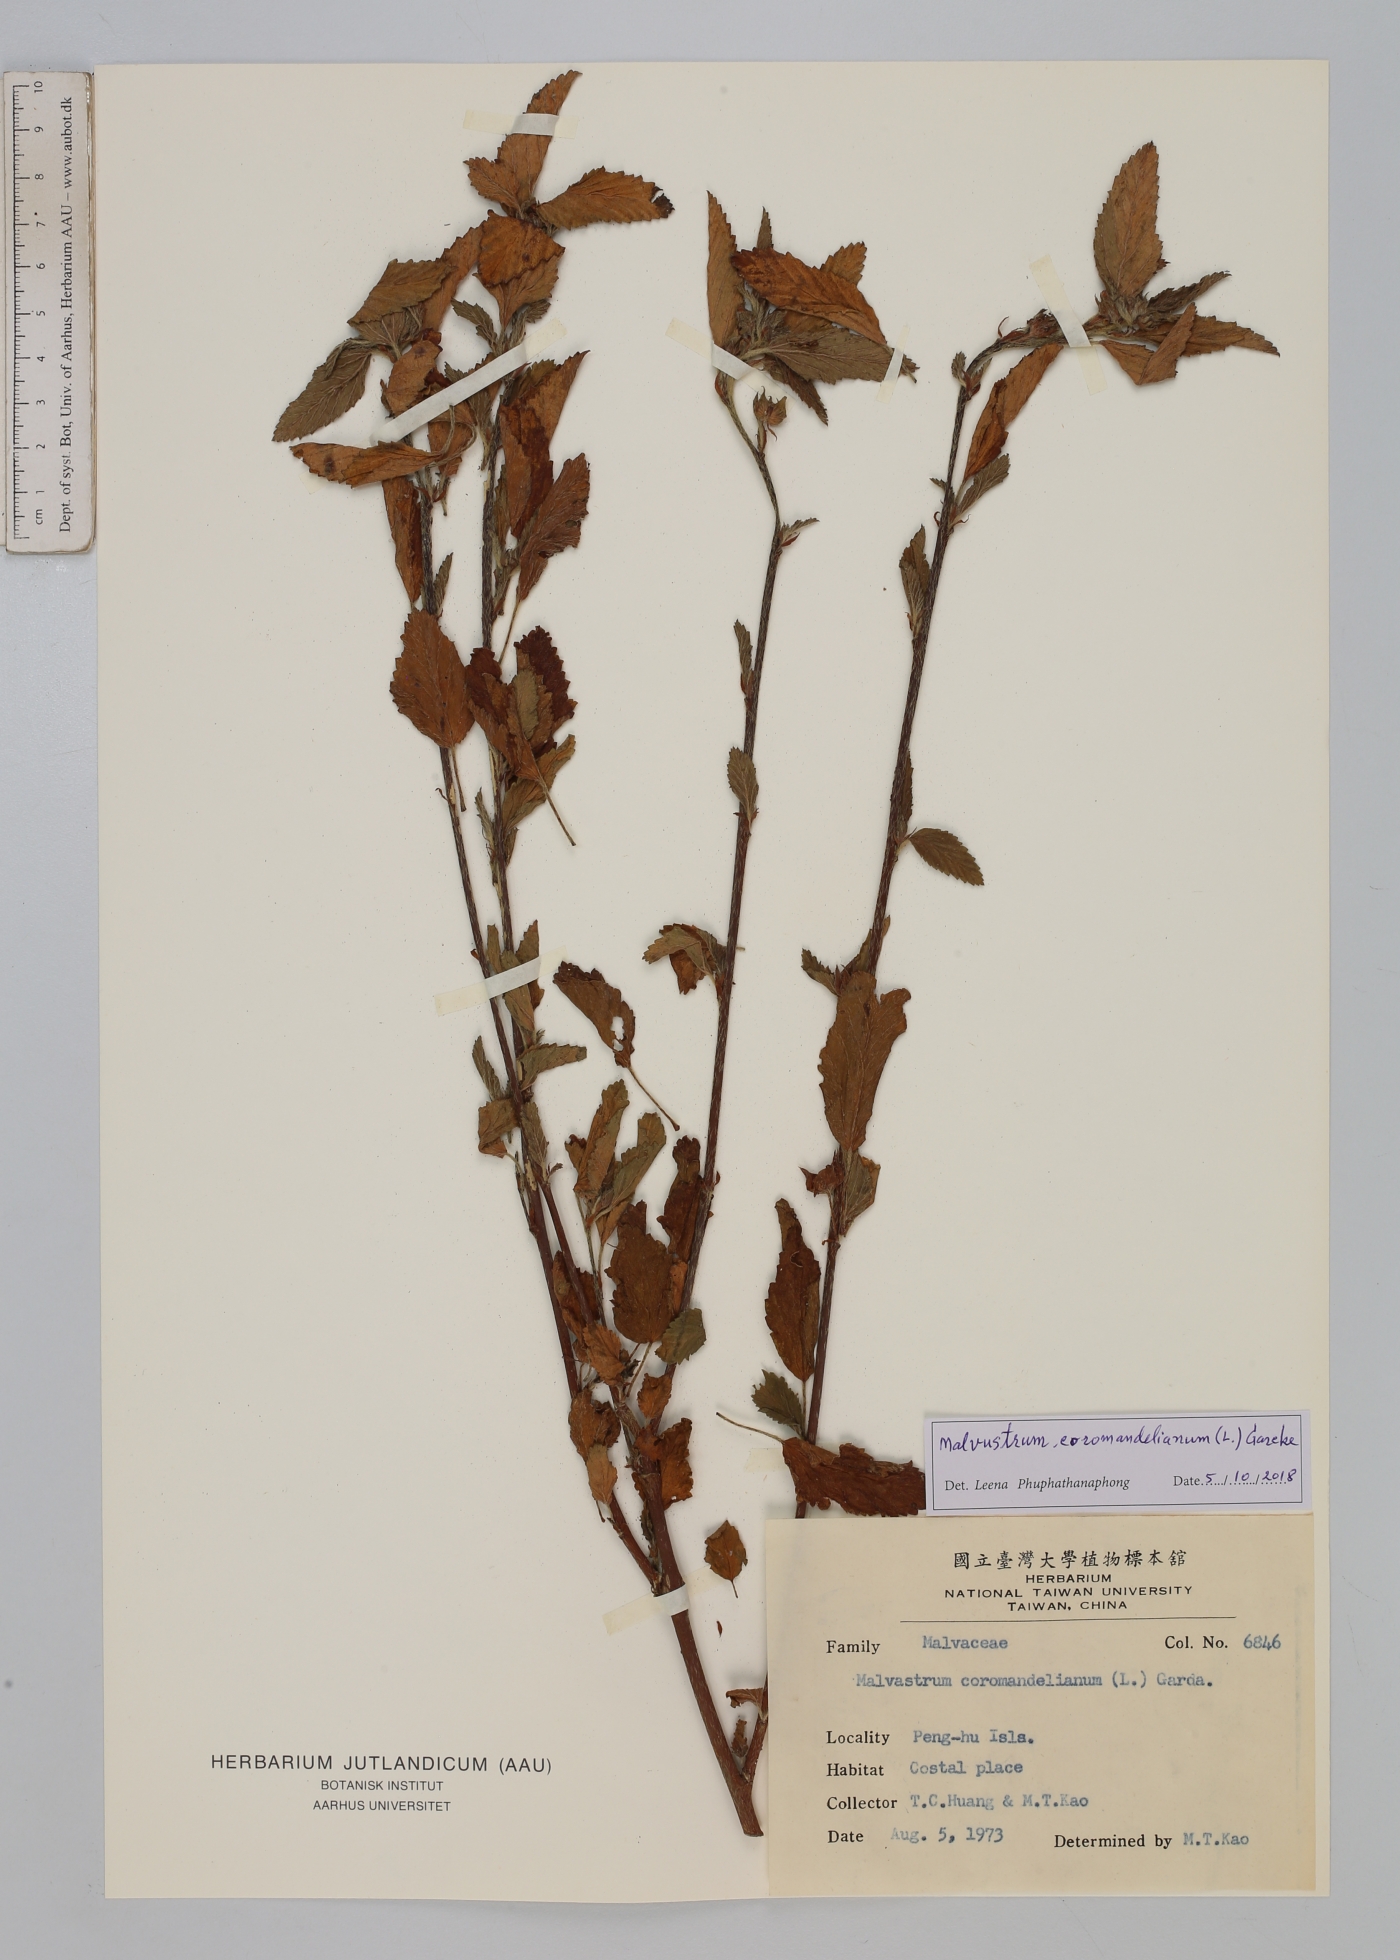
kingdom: Plantae
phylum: Tracheophyta
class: Magnoliopsida
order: Malvales
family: Malvaceae
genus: Malvastrum
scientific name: Malvastrum coromandelianum
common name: Threelobe false mallow
